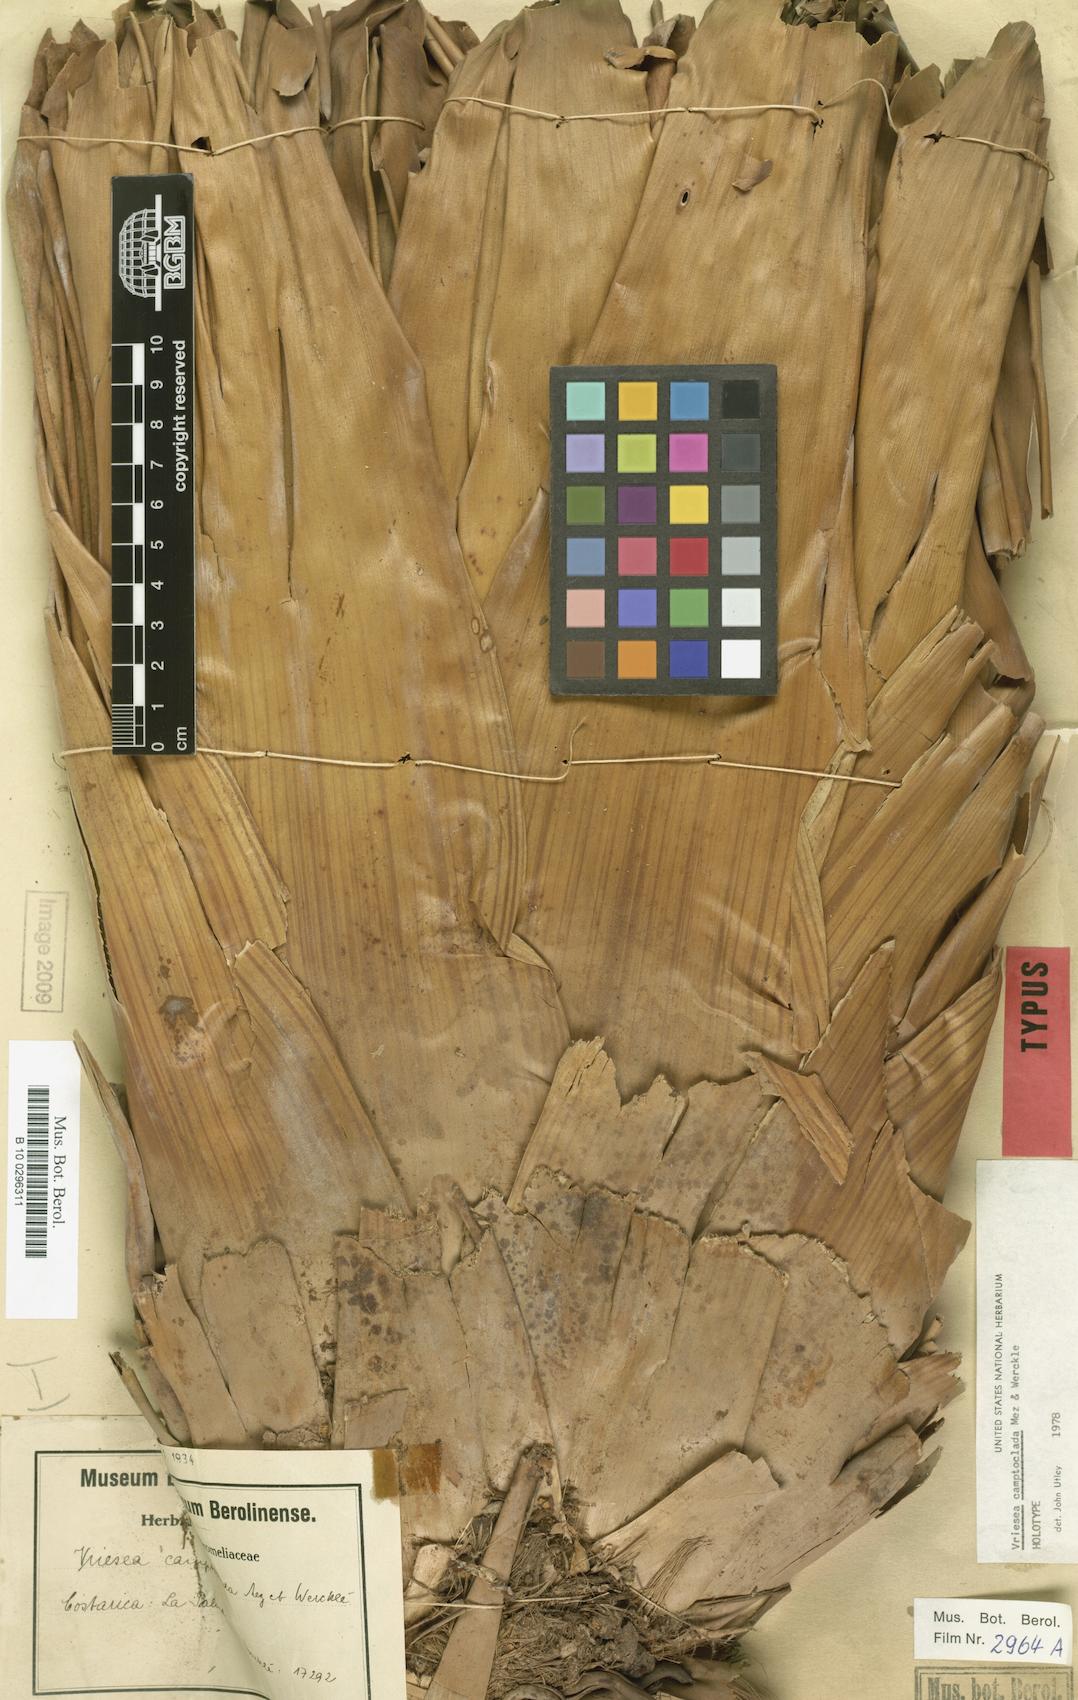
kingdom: Plantae
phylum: Tracheophyta
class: Liliopsida
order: Poales
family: Bromeliaceae
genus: Werauhia
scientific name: Werauhia camptoclada
